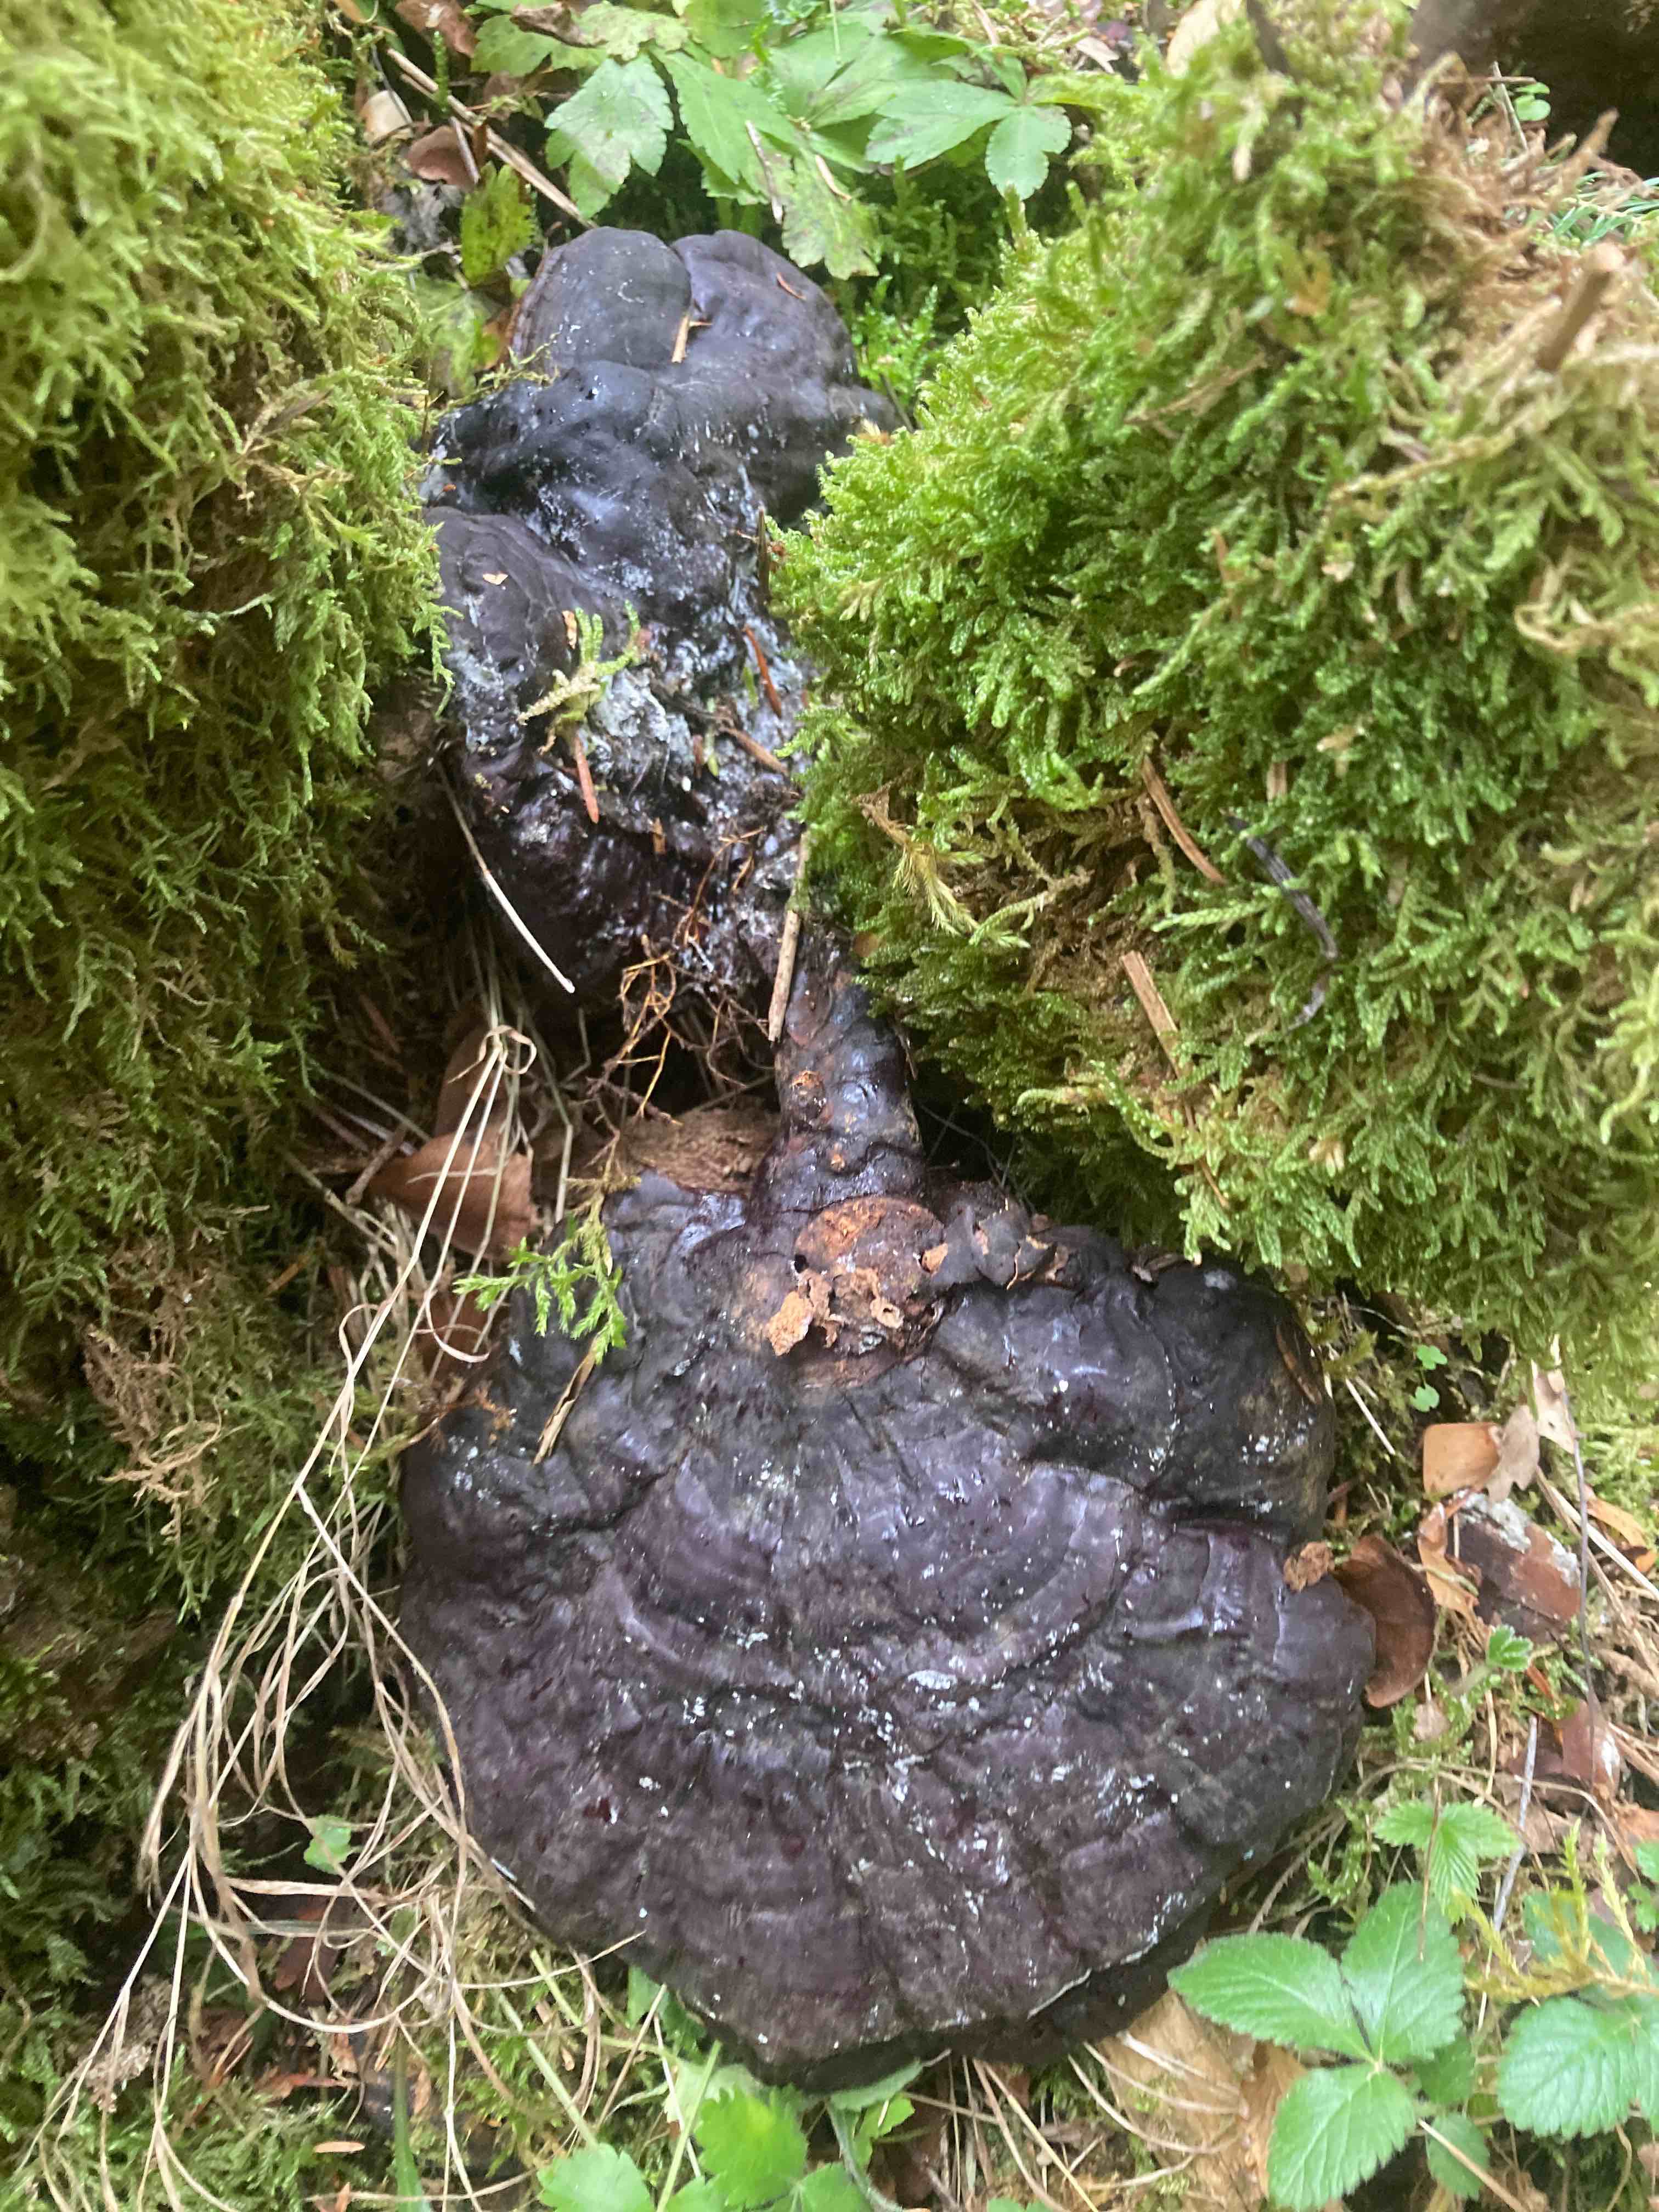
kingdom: Fungi
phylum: Basidiomycota
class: Agaricomycetes
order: Polyporales
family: Polyporaceae
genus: Ganoderma
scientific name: Ganoderma carnosum
